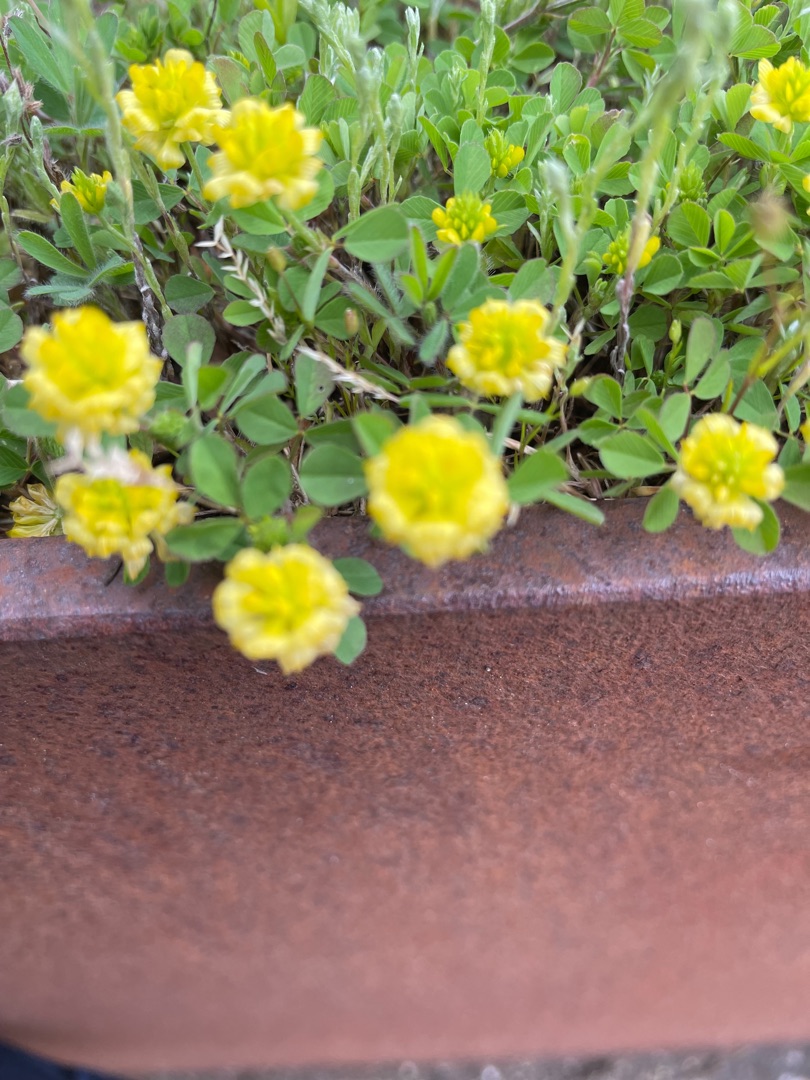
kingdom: Plantae
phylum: Tracheophyta
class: Magnoliopsida
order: Fabales
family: Fabaceae
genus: Trifolium
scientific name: Trifolium campestre
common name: Gul kløver
